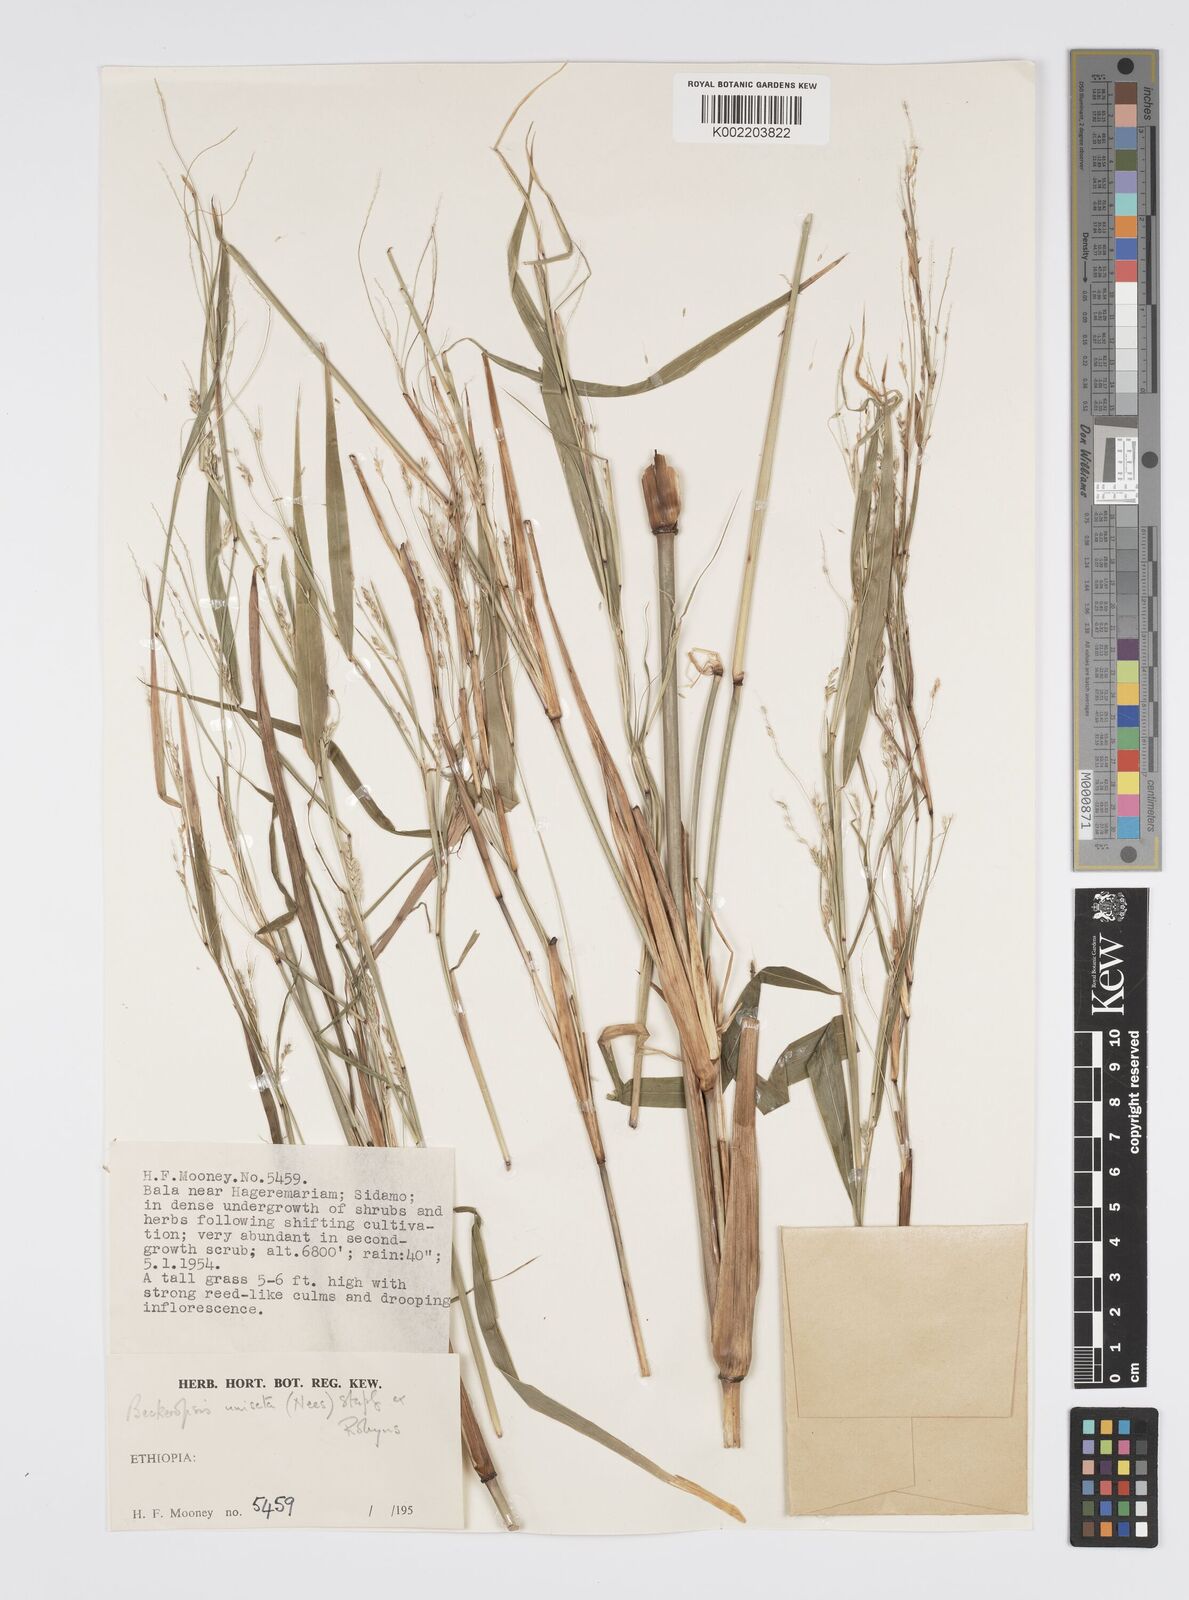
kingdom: Plantae
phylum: Tracheophyta
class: Liliopsida
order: Poales
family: Poaceae
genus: Cenchrus
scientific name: Cenchrus unisetus
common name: Natal grass
